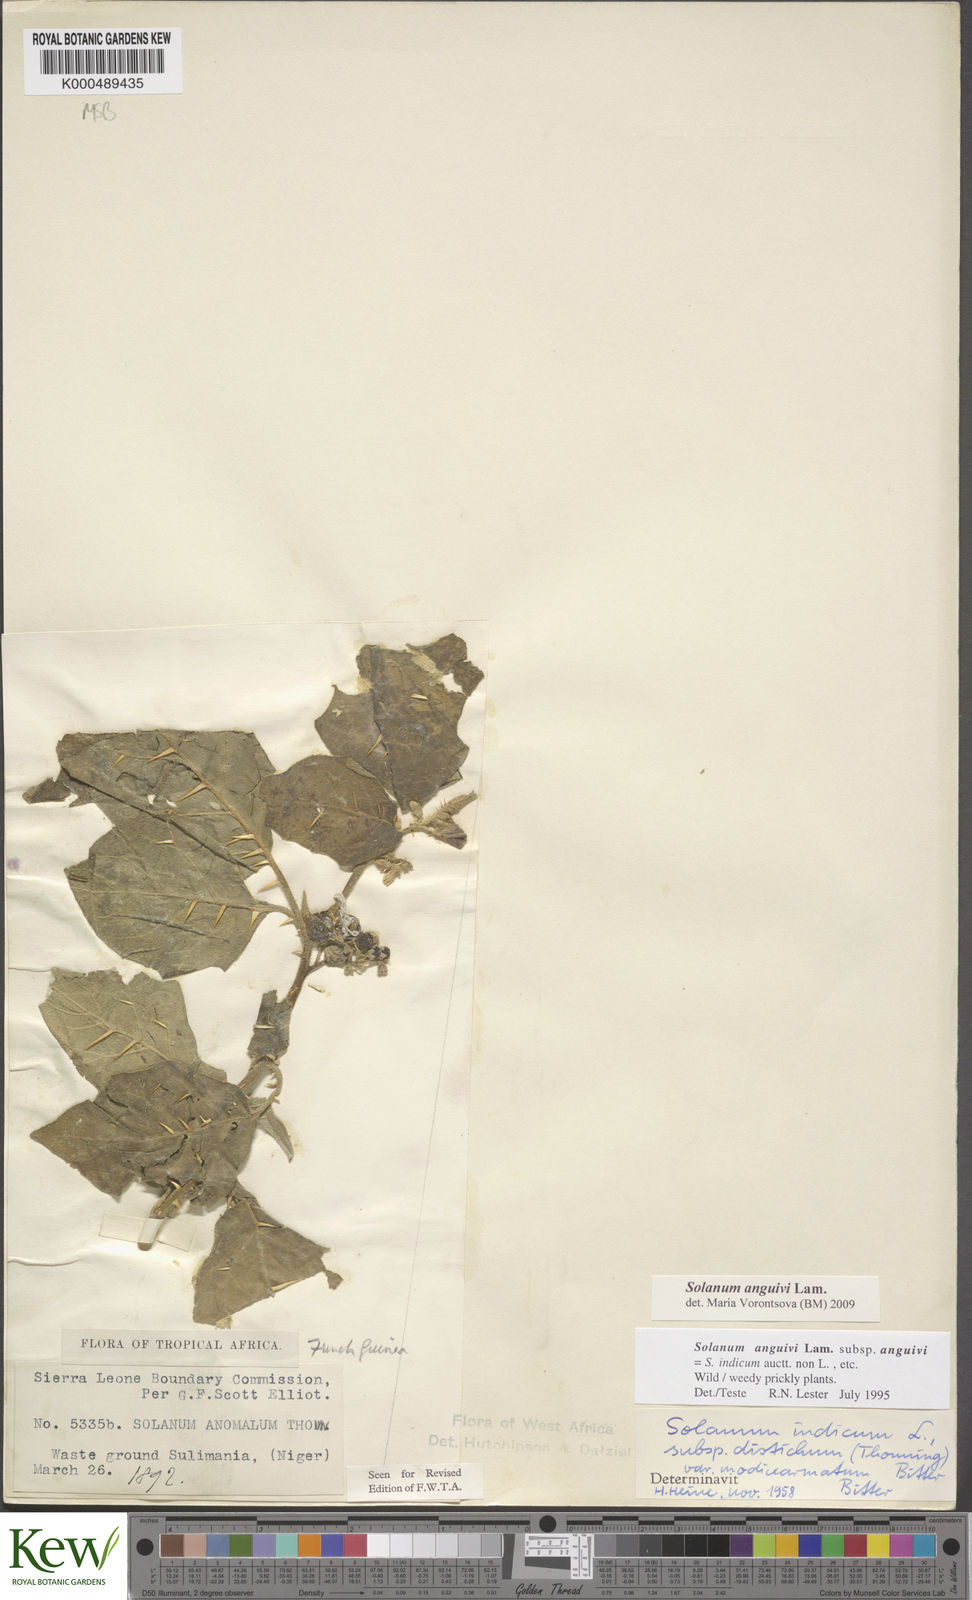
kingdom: Plantae
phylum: Tracheophyta
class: Magnoliopsida
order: Solanales
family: Solanaceae
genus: Solanum
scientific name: Solanum anguivi
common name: Forest bitterberry
